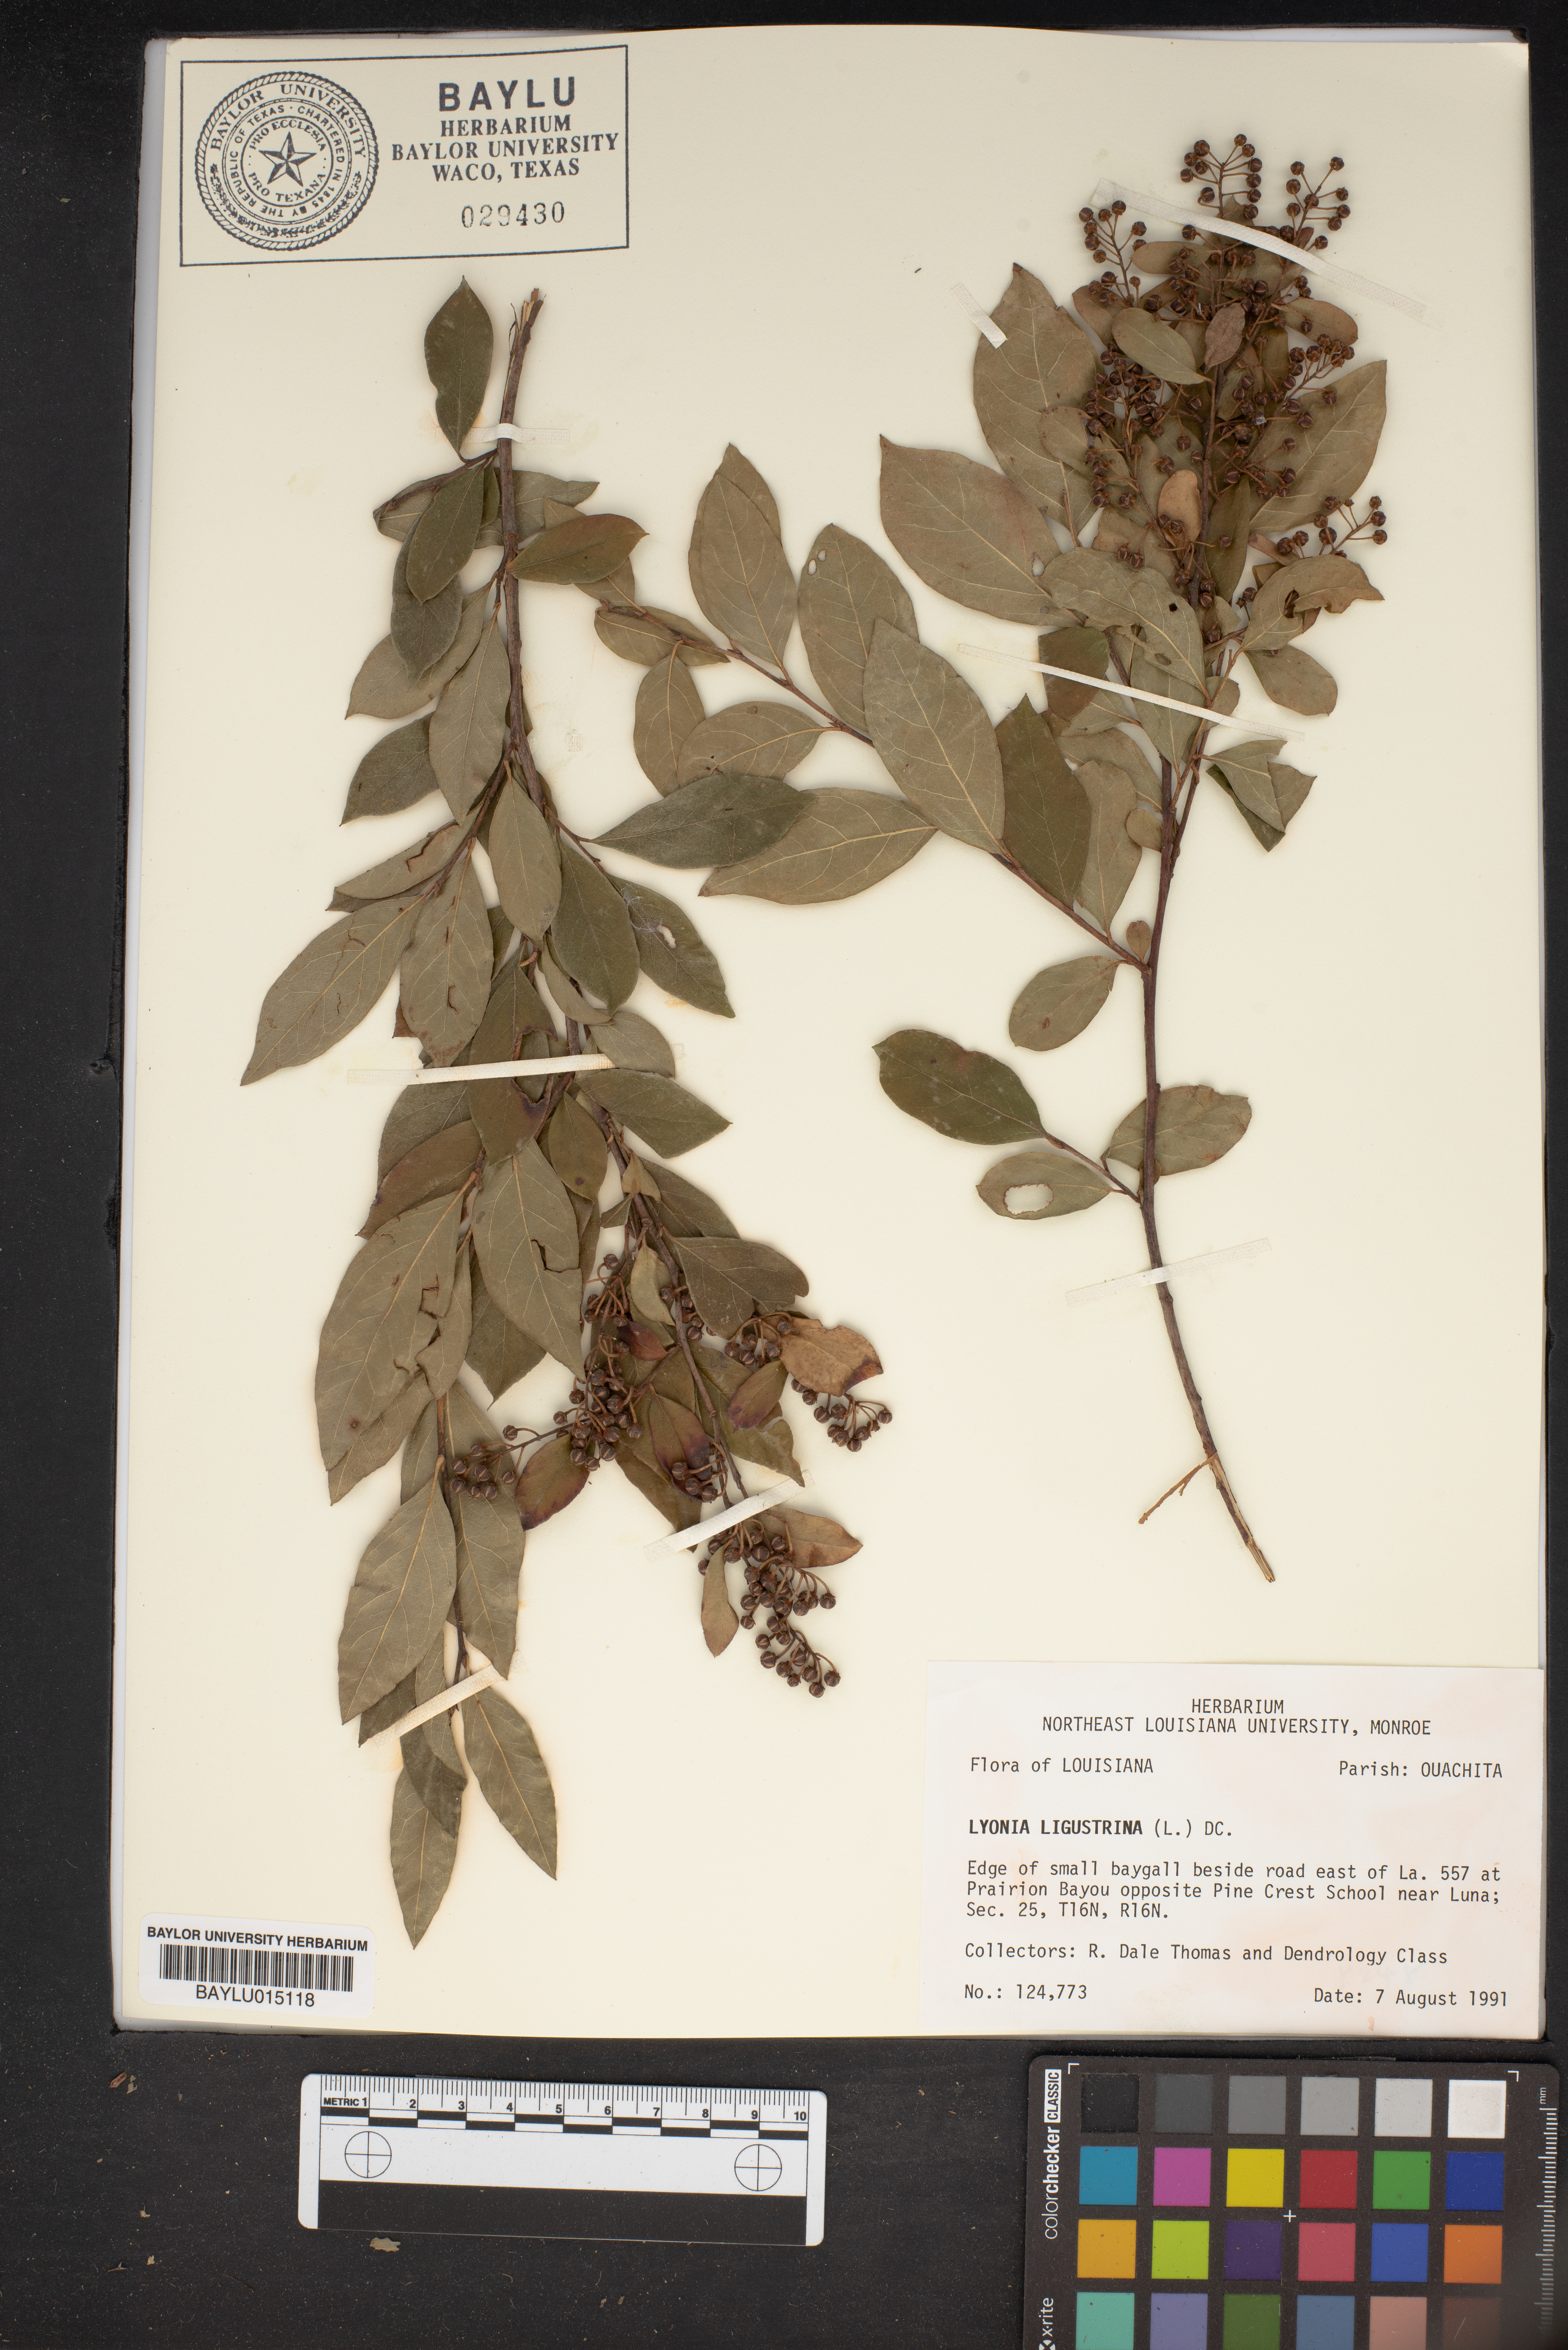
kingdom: Plantae
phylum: Tracheophyta
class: Magnoliopsida
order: Ericales
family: Ericaceae
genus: Lyonia
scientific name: Lyonia ligustrina
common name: Maleberry
